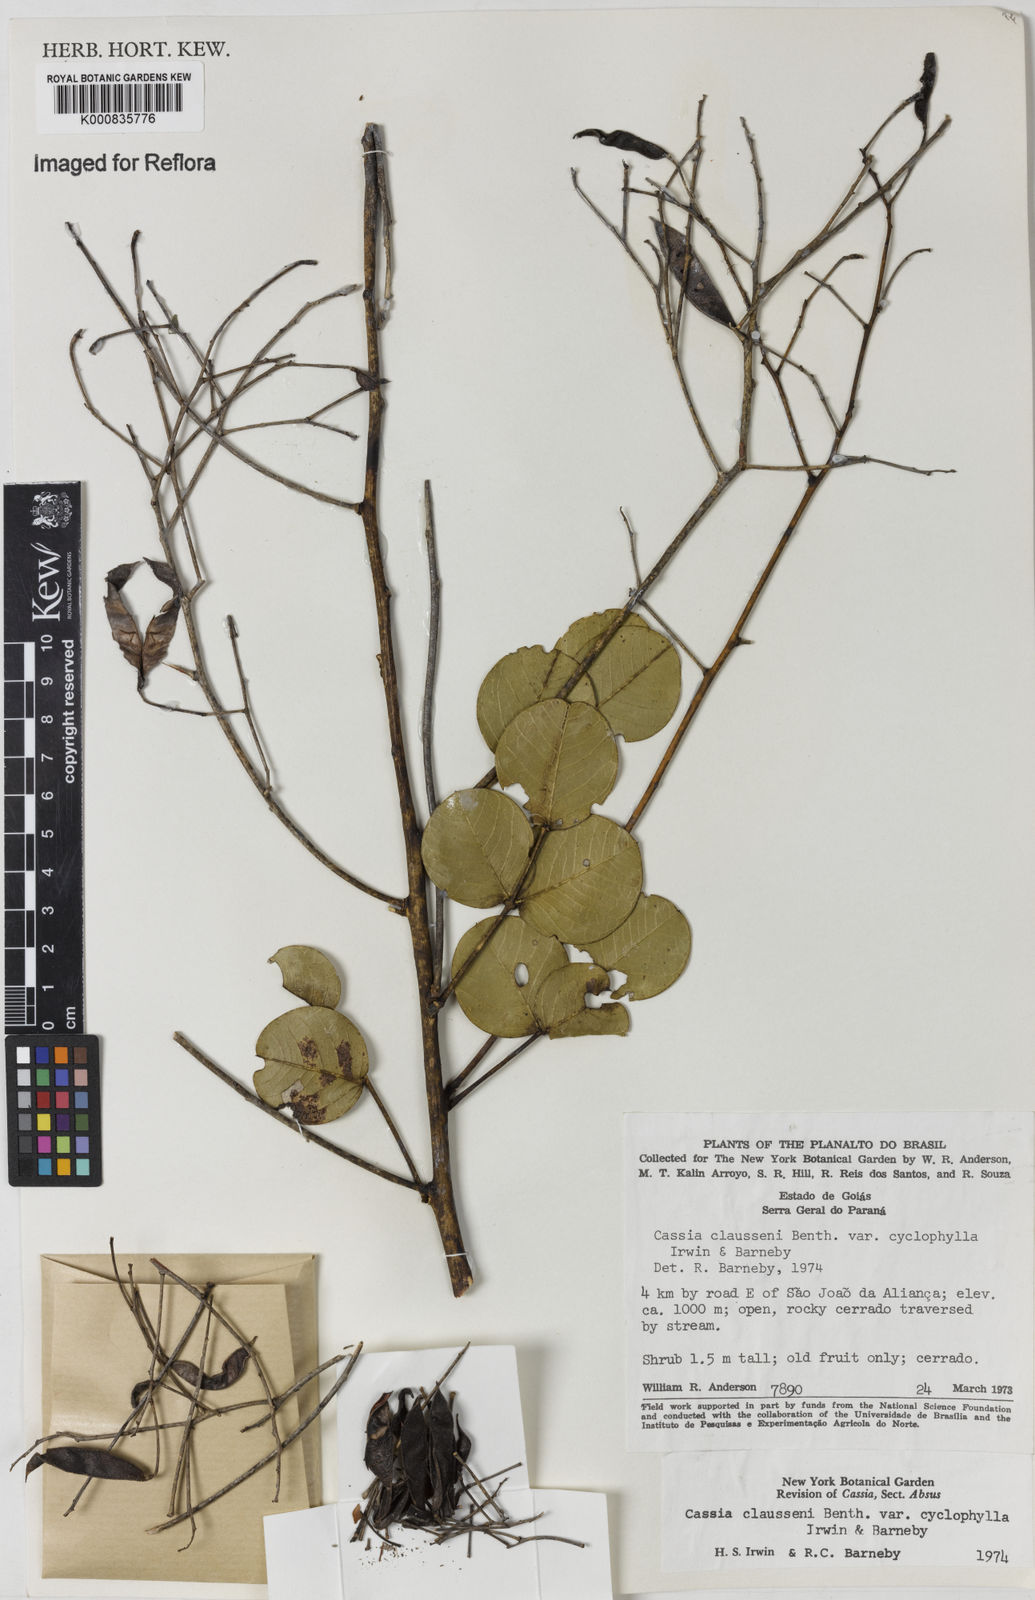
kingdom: Plantae
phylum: Tracheophyta
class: Magnoliopsida
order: Fabales
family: Fabaceae
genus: Chamaecrista
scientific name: Chamaecrista cyclophylla
